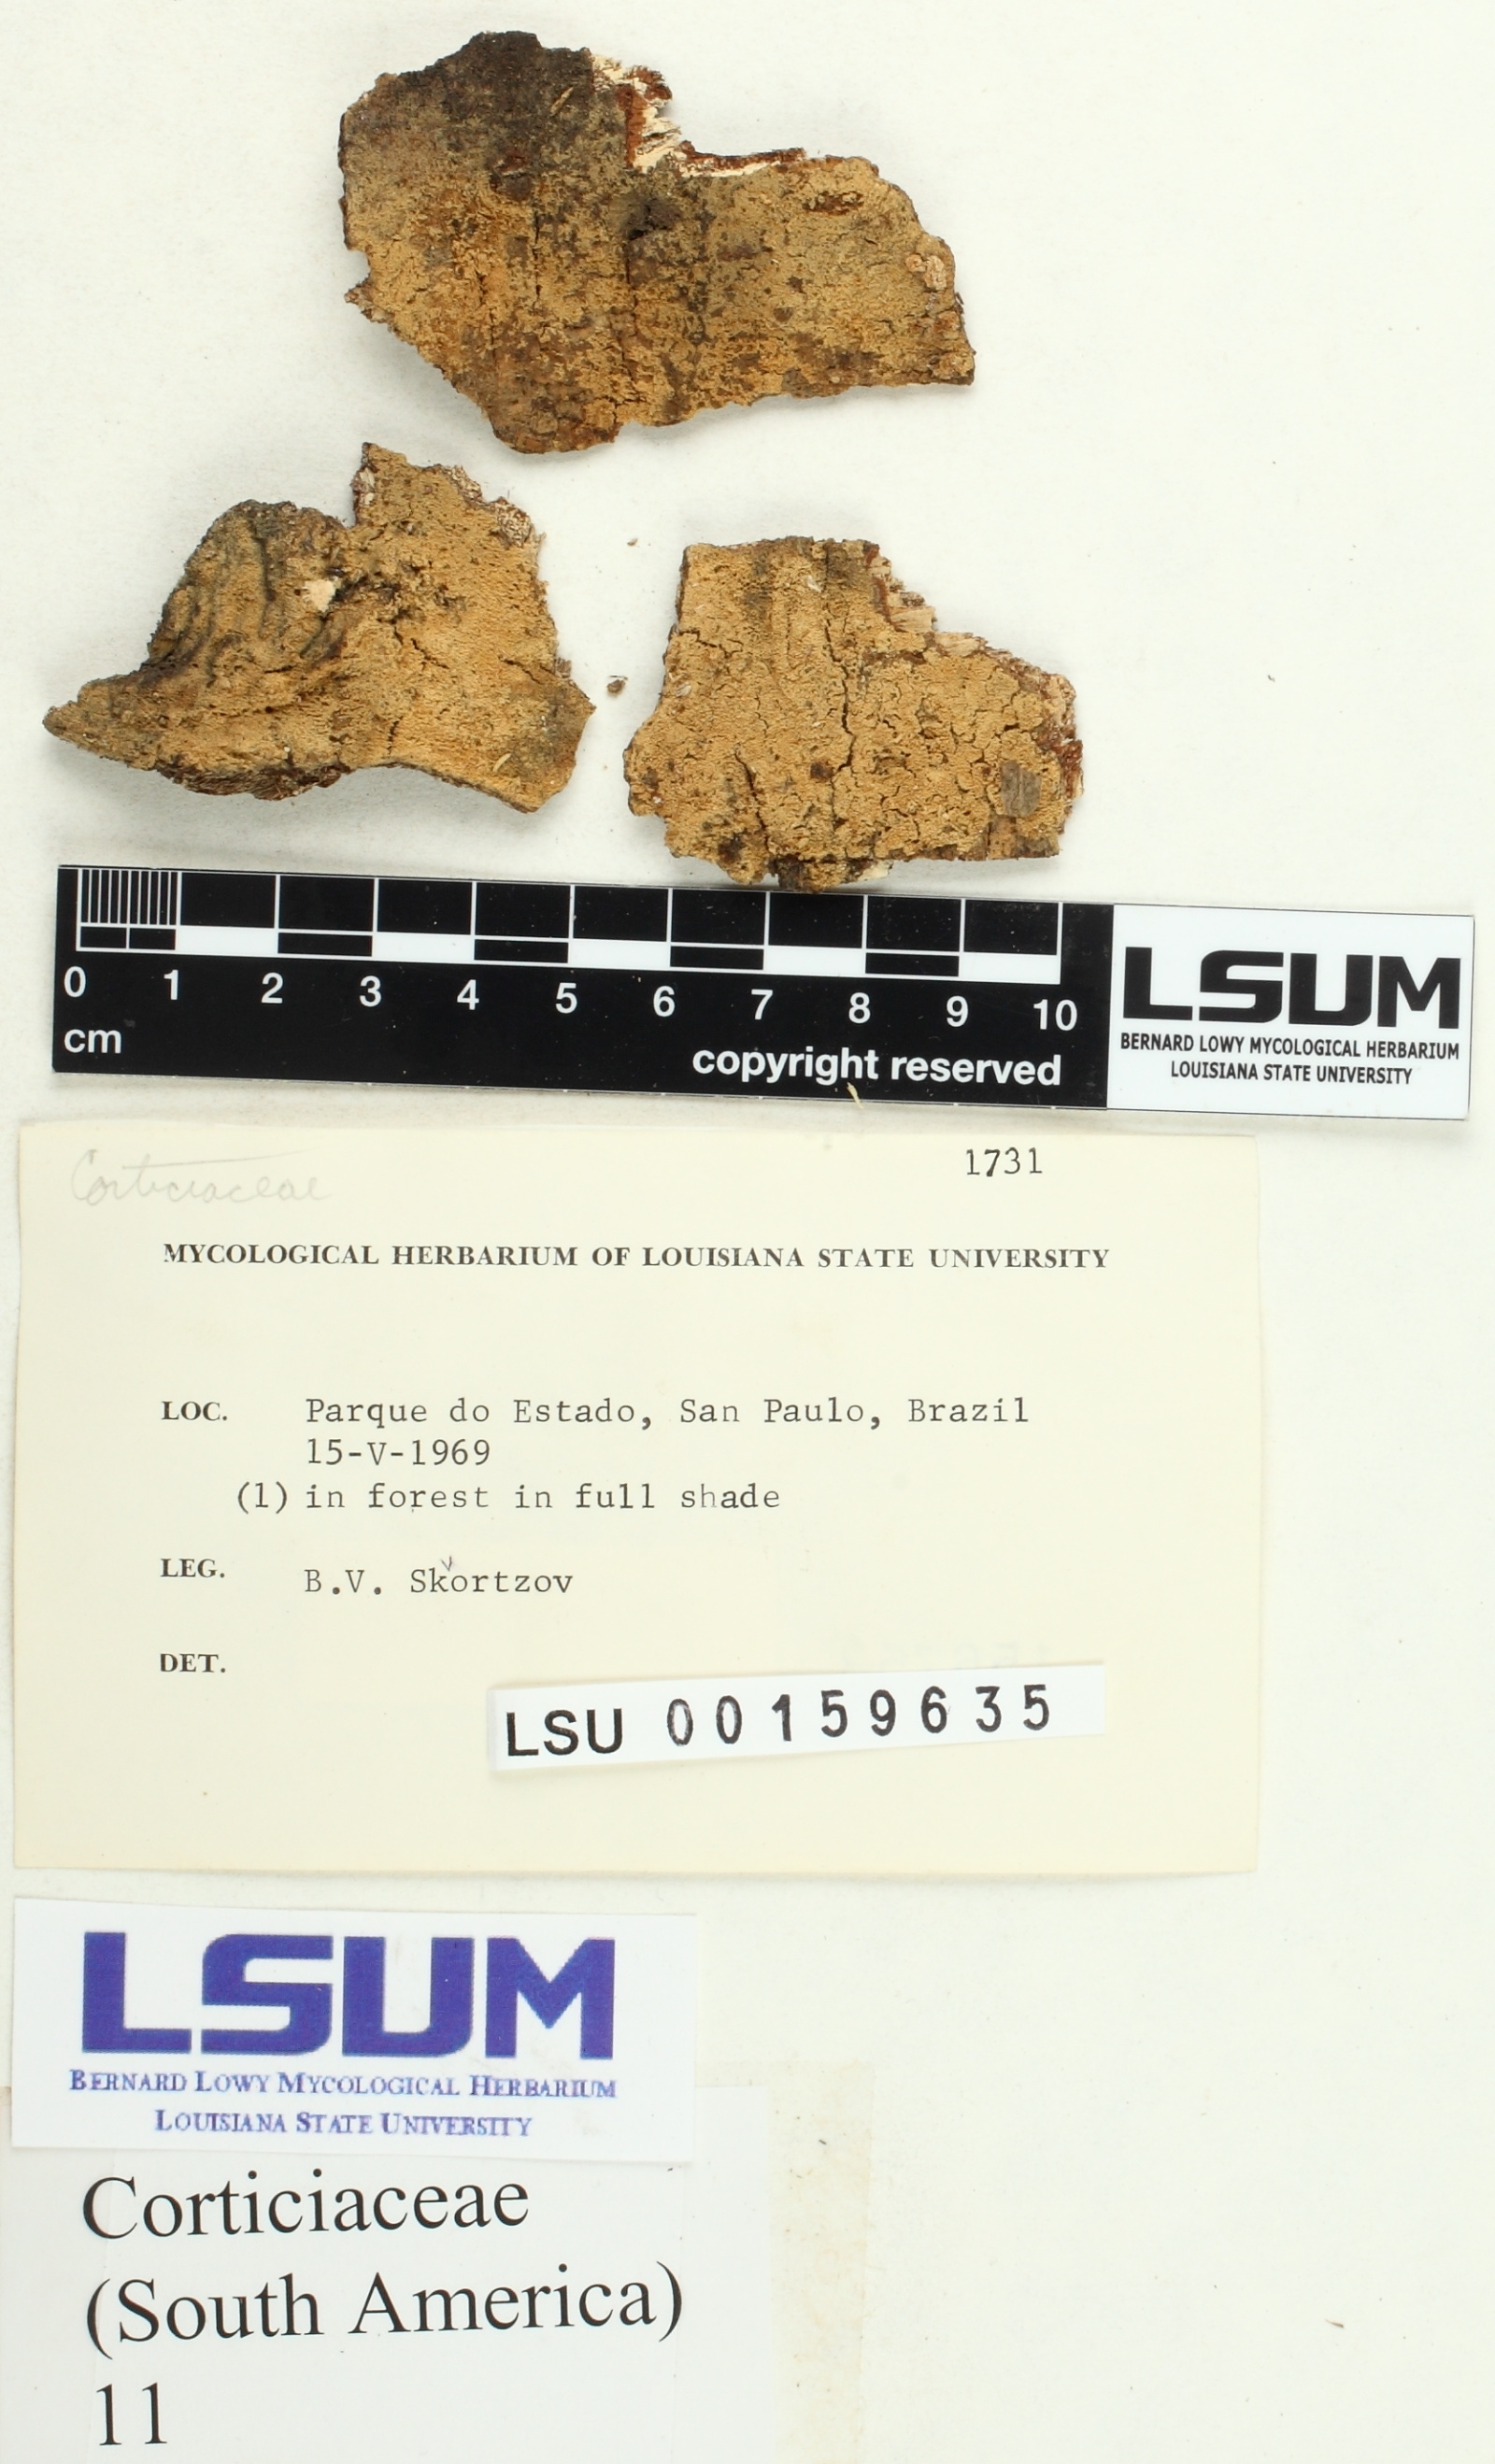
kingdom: Fungi
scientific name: Fungi
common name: Fungi
